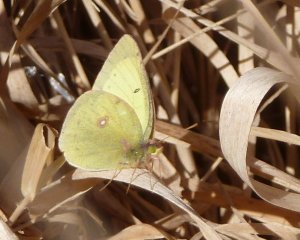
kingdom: Animalia
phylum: Arthropoda
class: Insecta
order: Lepidoptera
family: Pieridae
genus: Colias
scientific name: Colias philodice
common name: Clouded Sulphur
